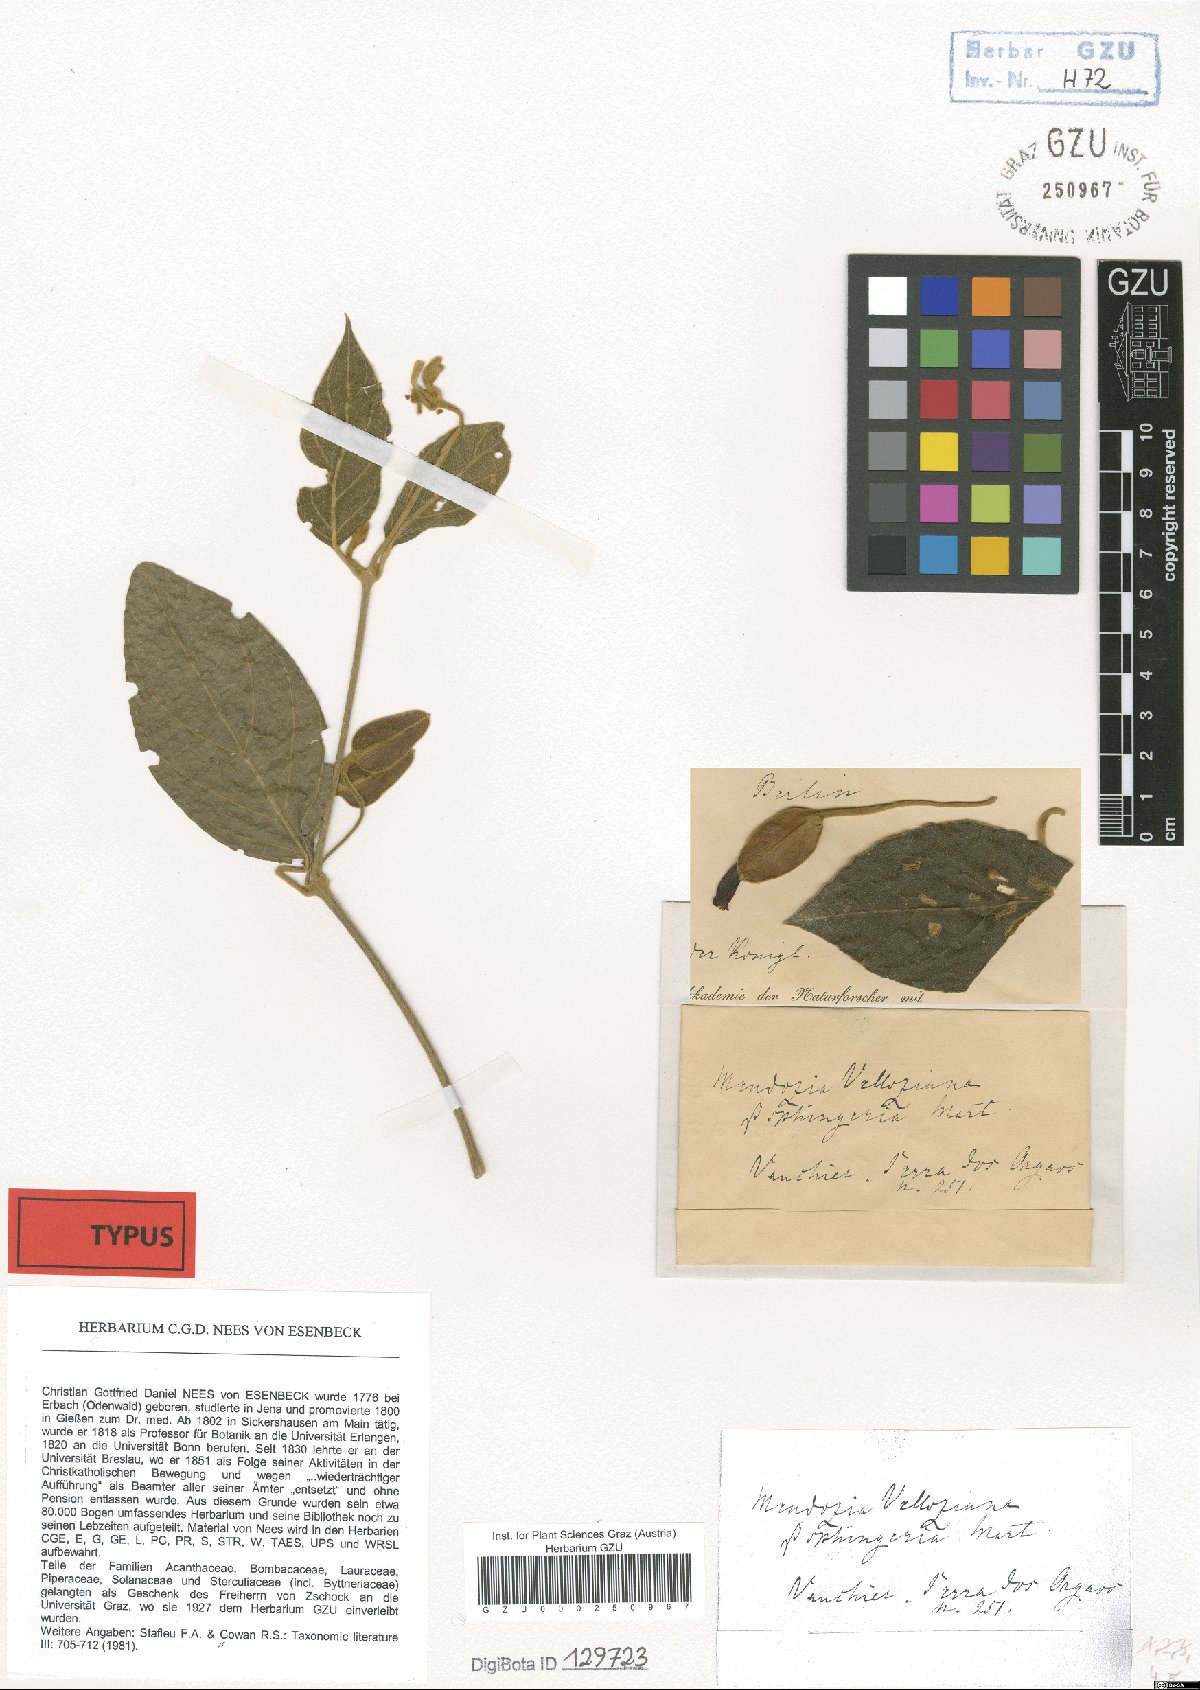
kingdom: Plantae
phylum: Tracheophyta
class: Magnoliopsida
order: Lamiales
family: Acanthaceae
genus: Mendoncia
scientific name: Mendoncia velloziana
